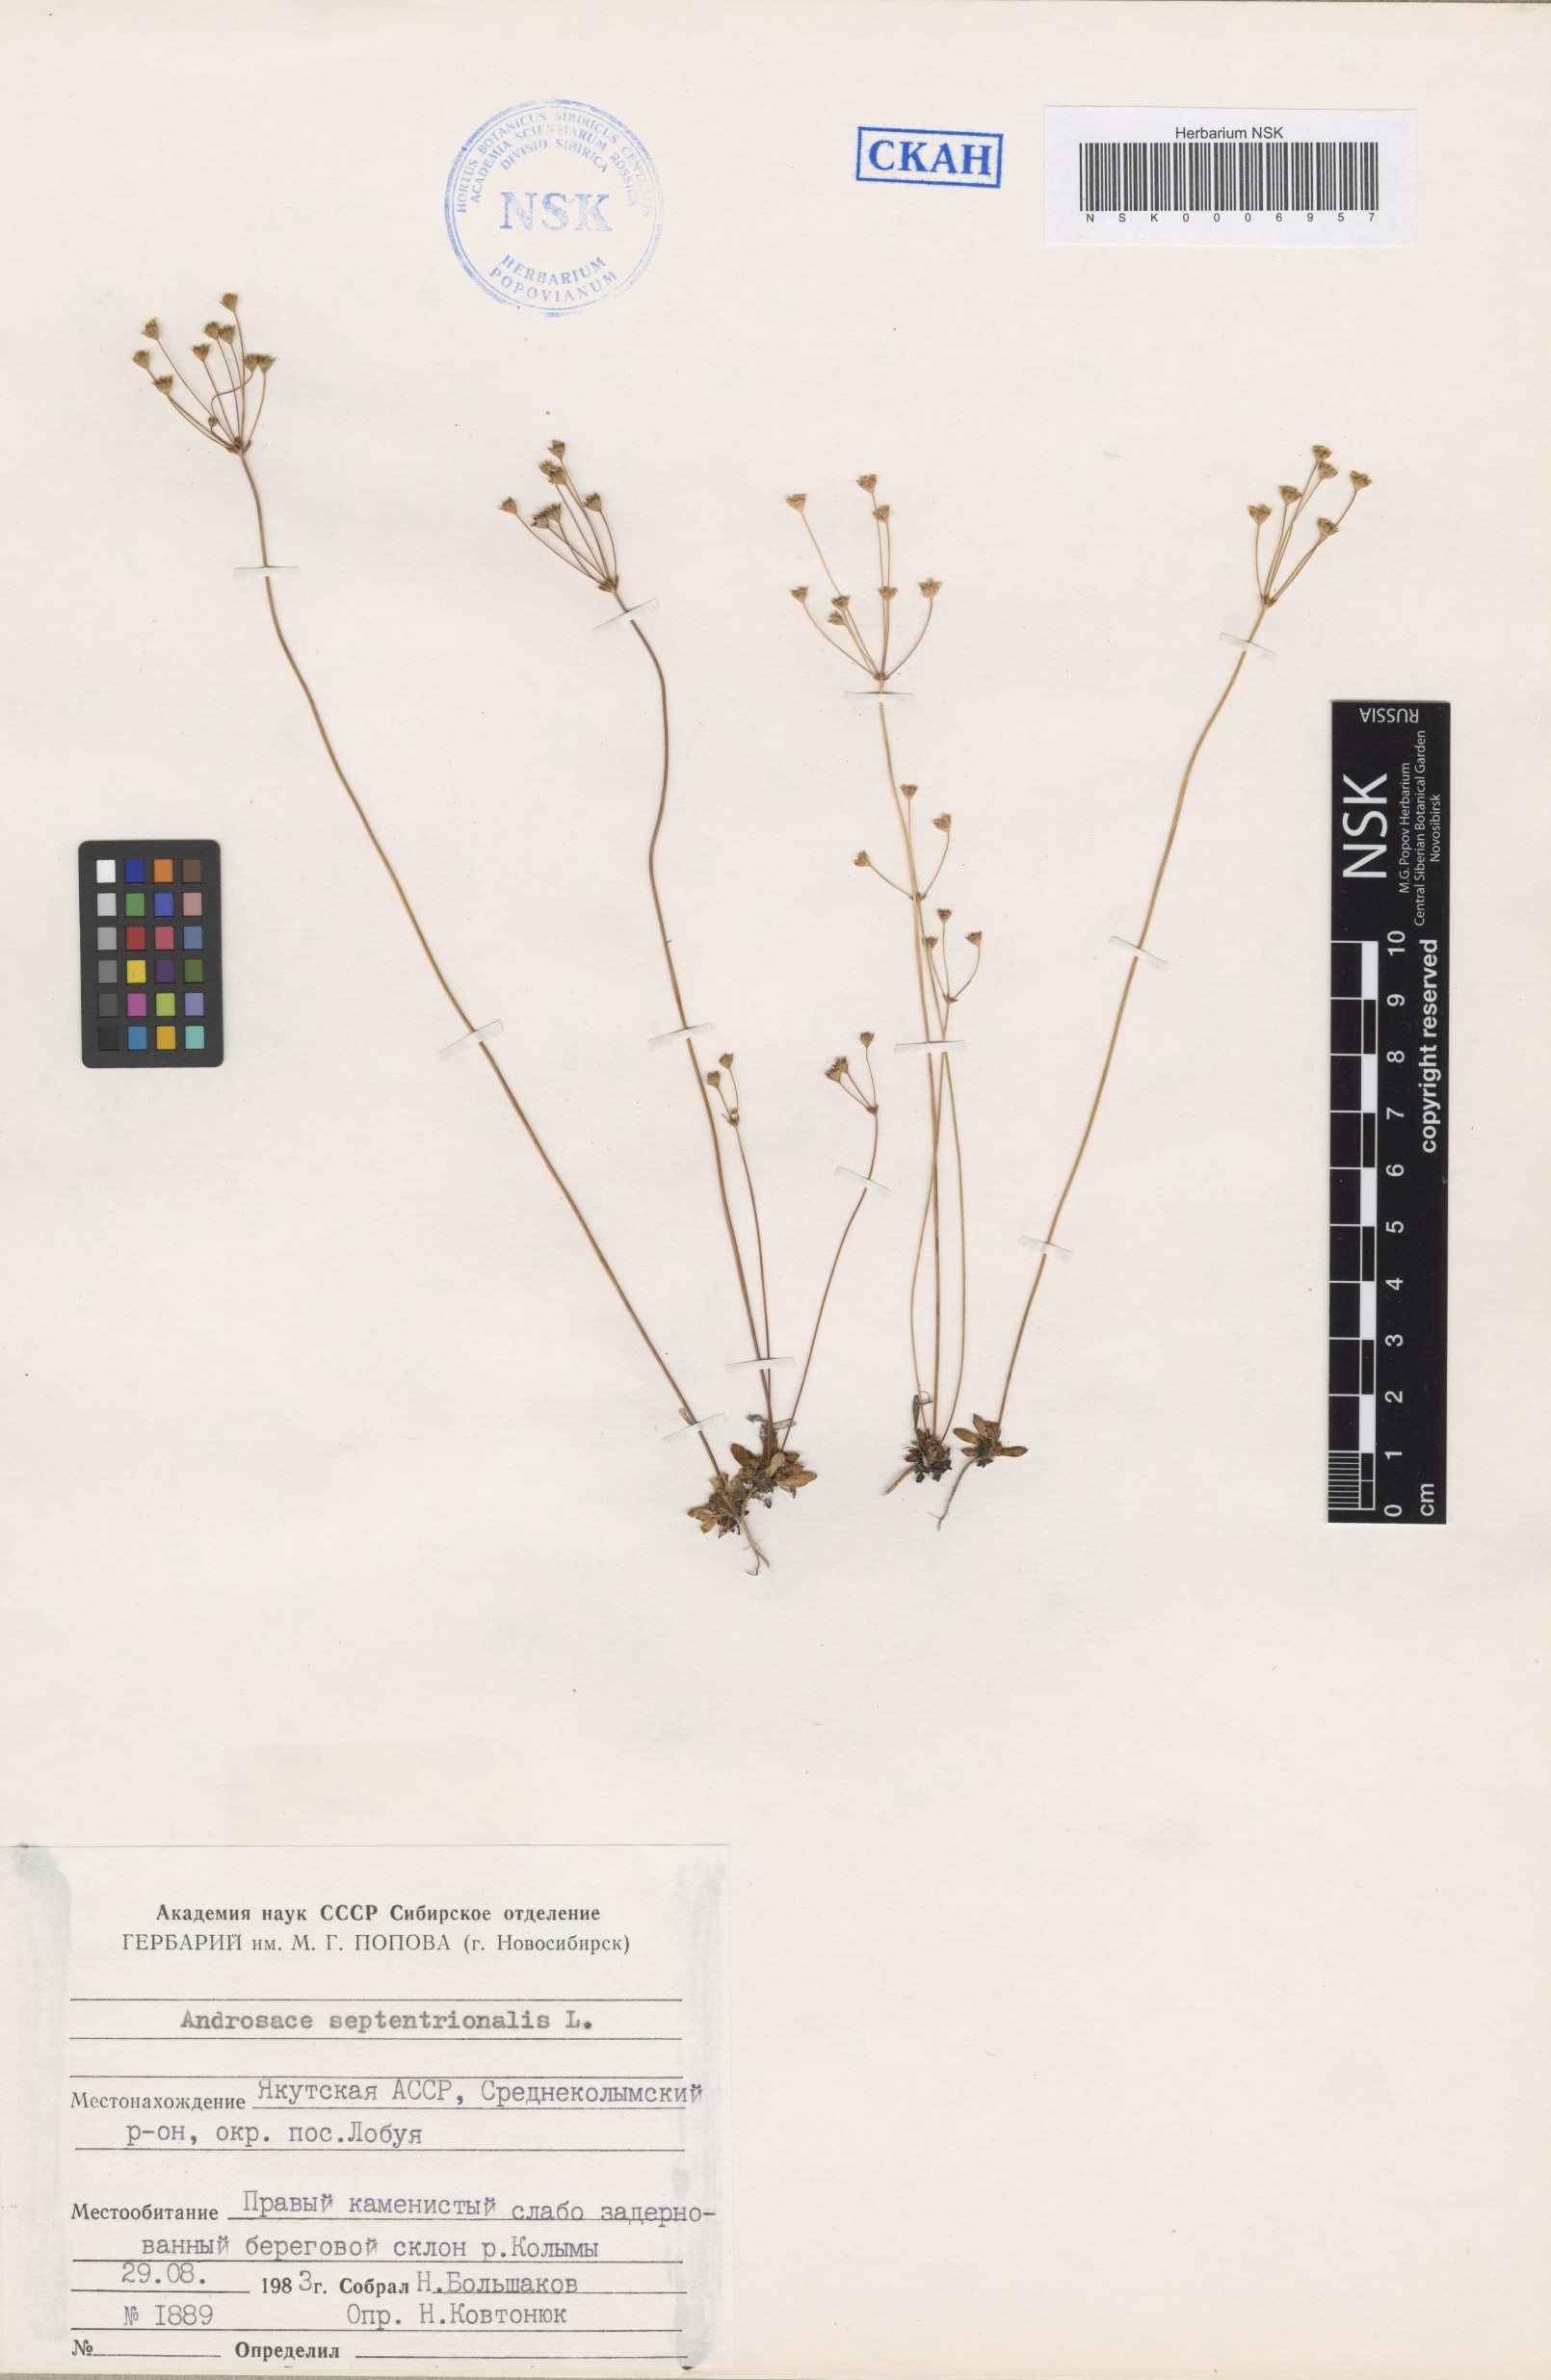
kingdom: Plantae
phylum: Tracheophyta
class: Magnoliopsida
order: Ericales
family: Primulaceae
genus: Androsace
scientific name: Androsace septentrionalis
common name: Hairy northern fairy-candelabra
